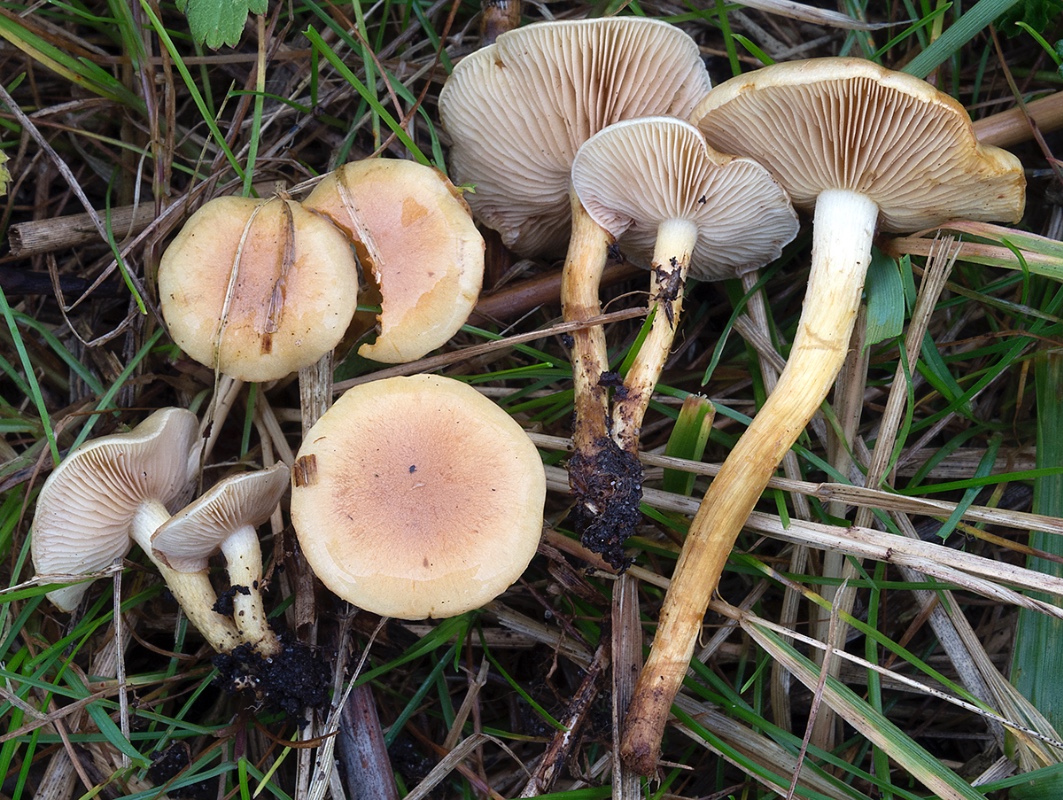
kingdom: Fungi
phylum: Basidiomycota
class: Agaricomycetes
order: Agaricales
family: Strophariaceae
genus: Pholiota
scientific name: Pholiota conissans
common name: pile-skælhat
